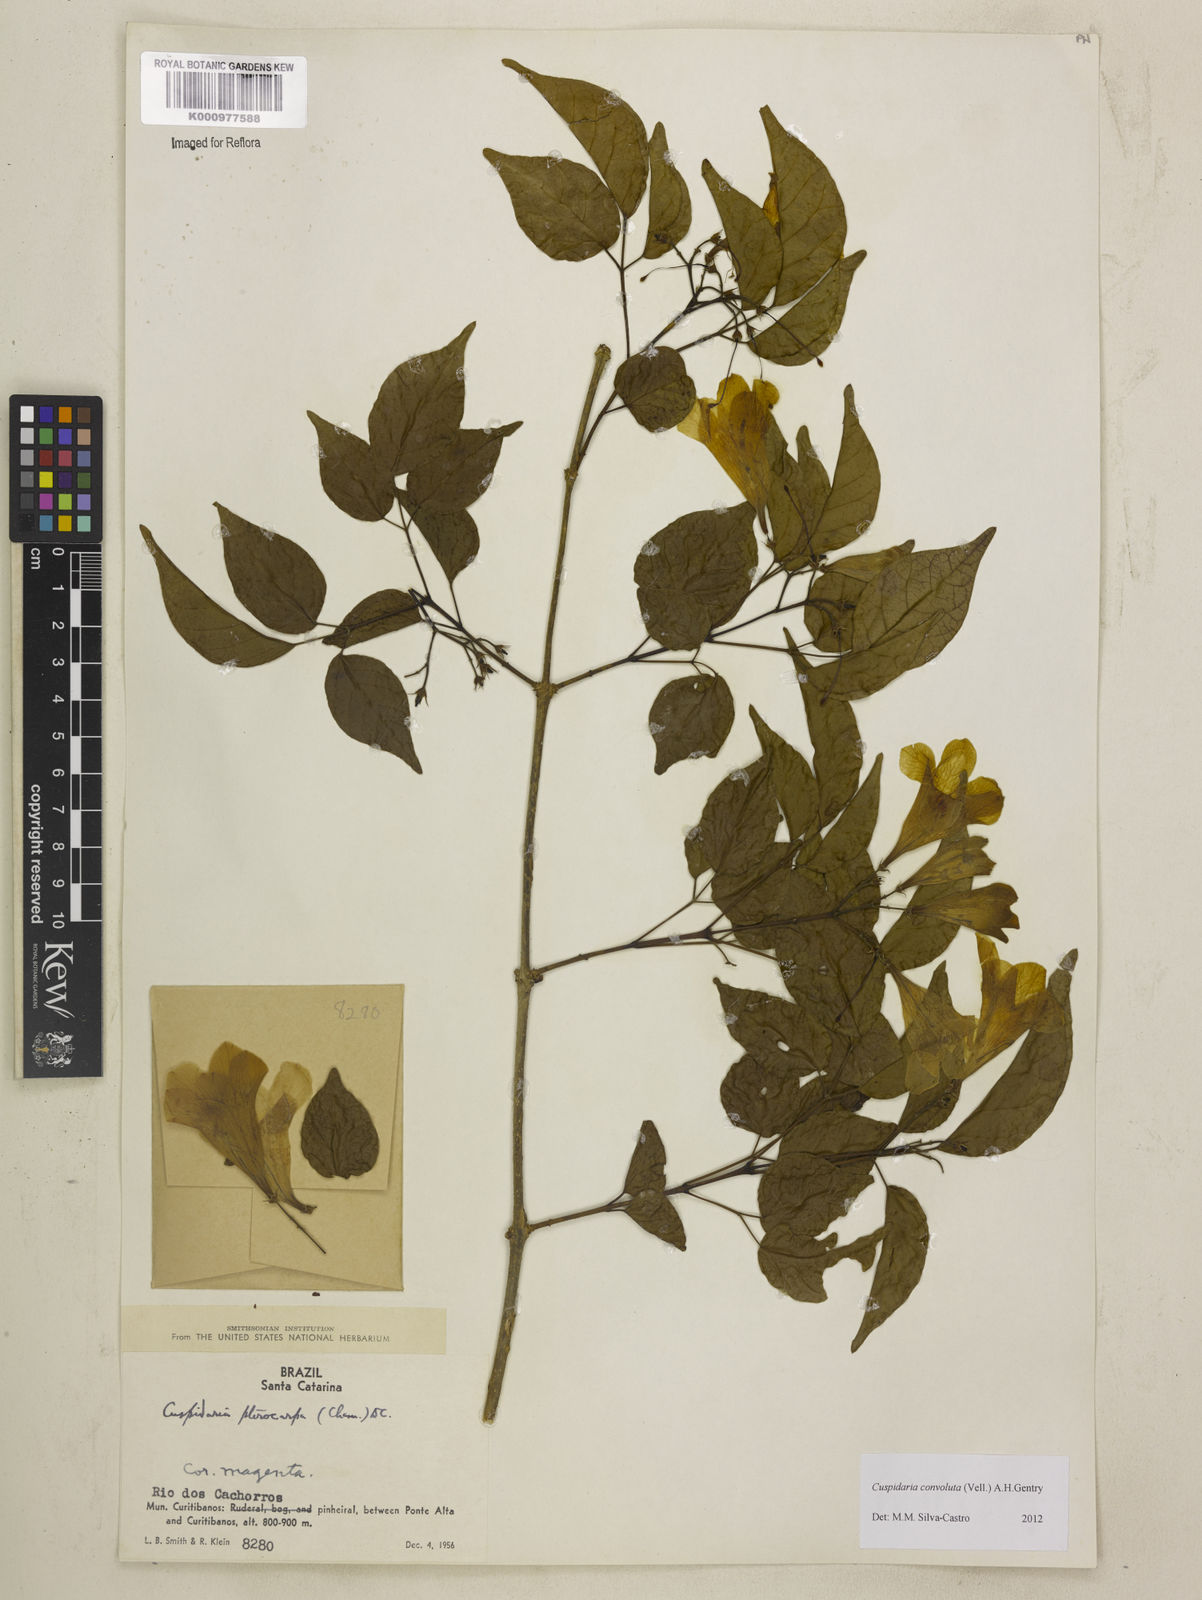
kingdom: Plantae
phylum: Tracheophyta
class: Magnoliopsida
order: Lamiales
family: Bignoniaceae
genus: Cuspidaria
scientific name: Cuspidaria convoluta
